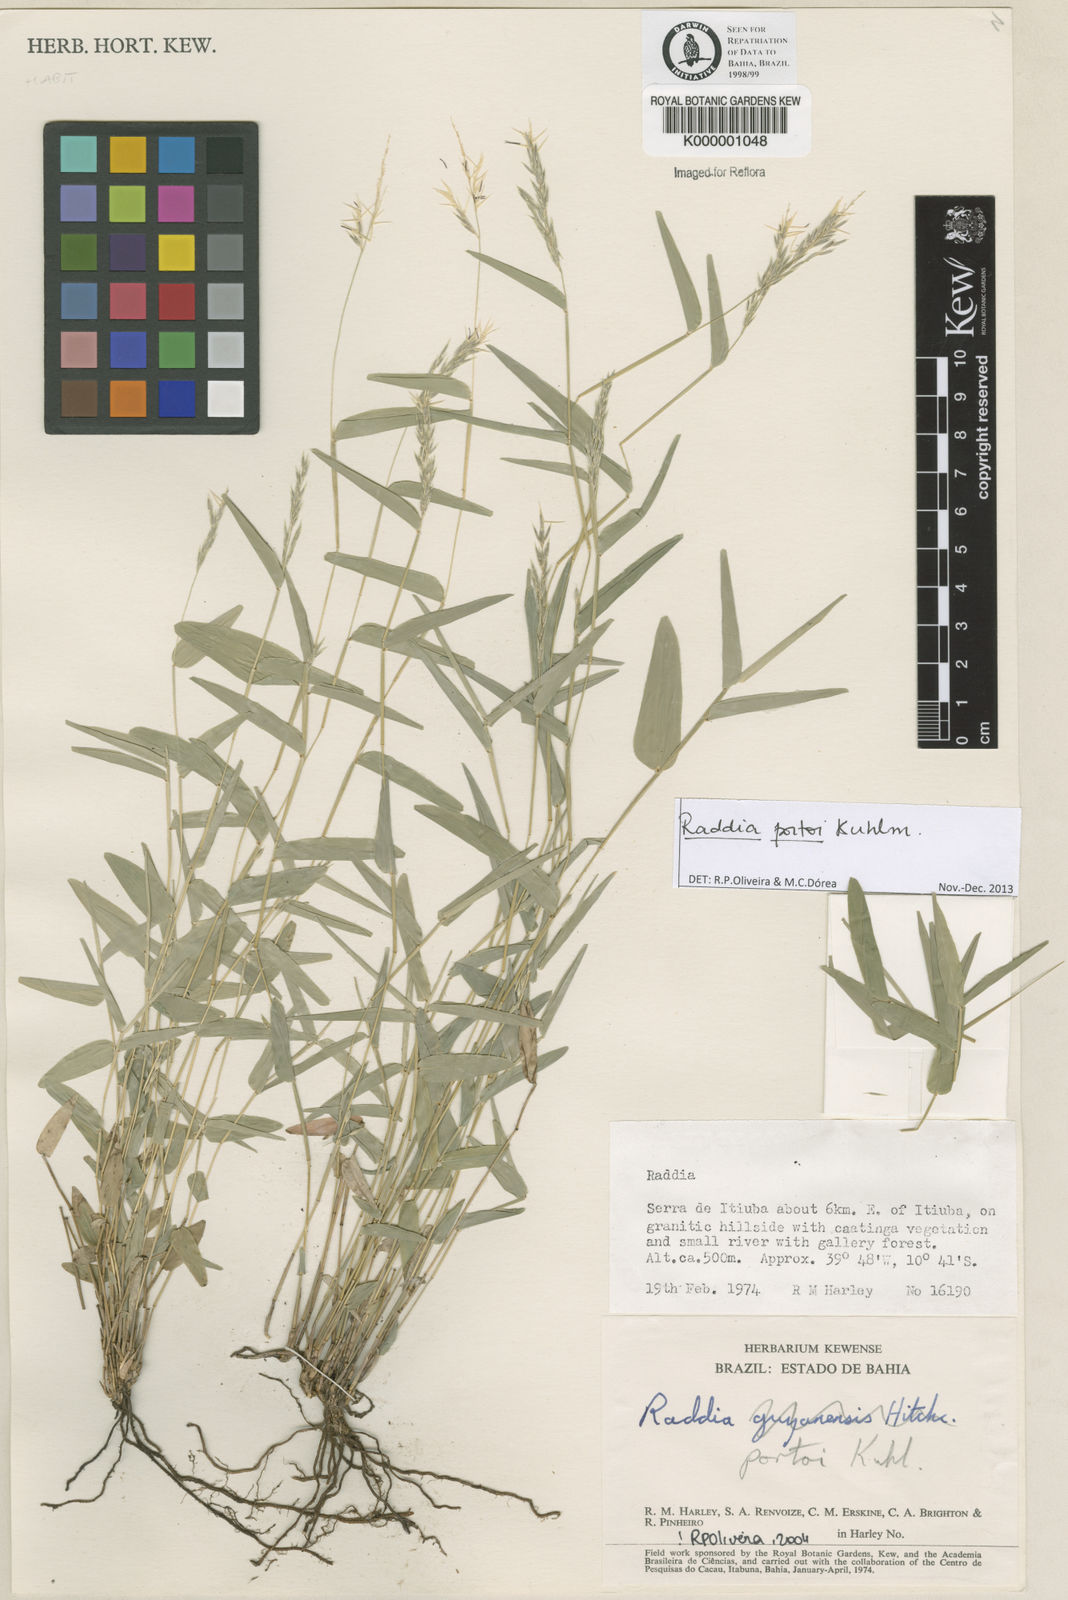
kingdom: Plantae
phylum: Tracheophyta
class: Liliopsida
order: Poales
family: Poaceae
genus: Raddia
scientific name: Raddia portoi
